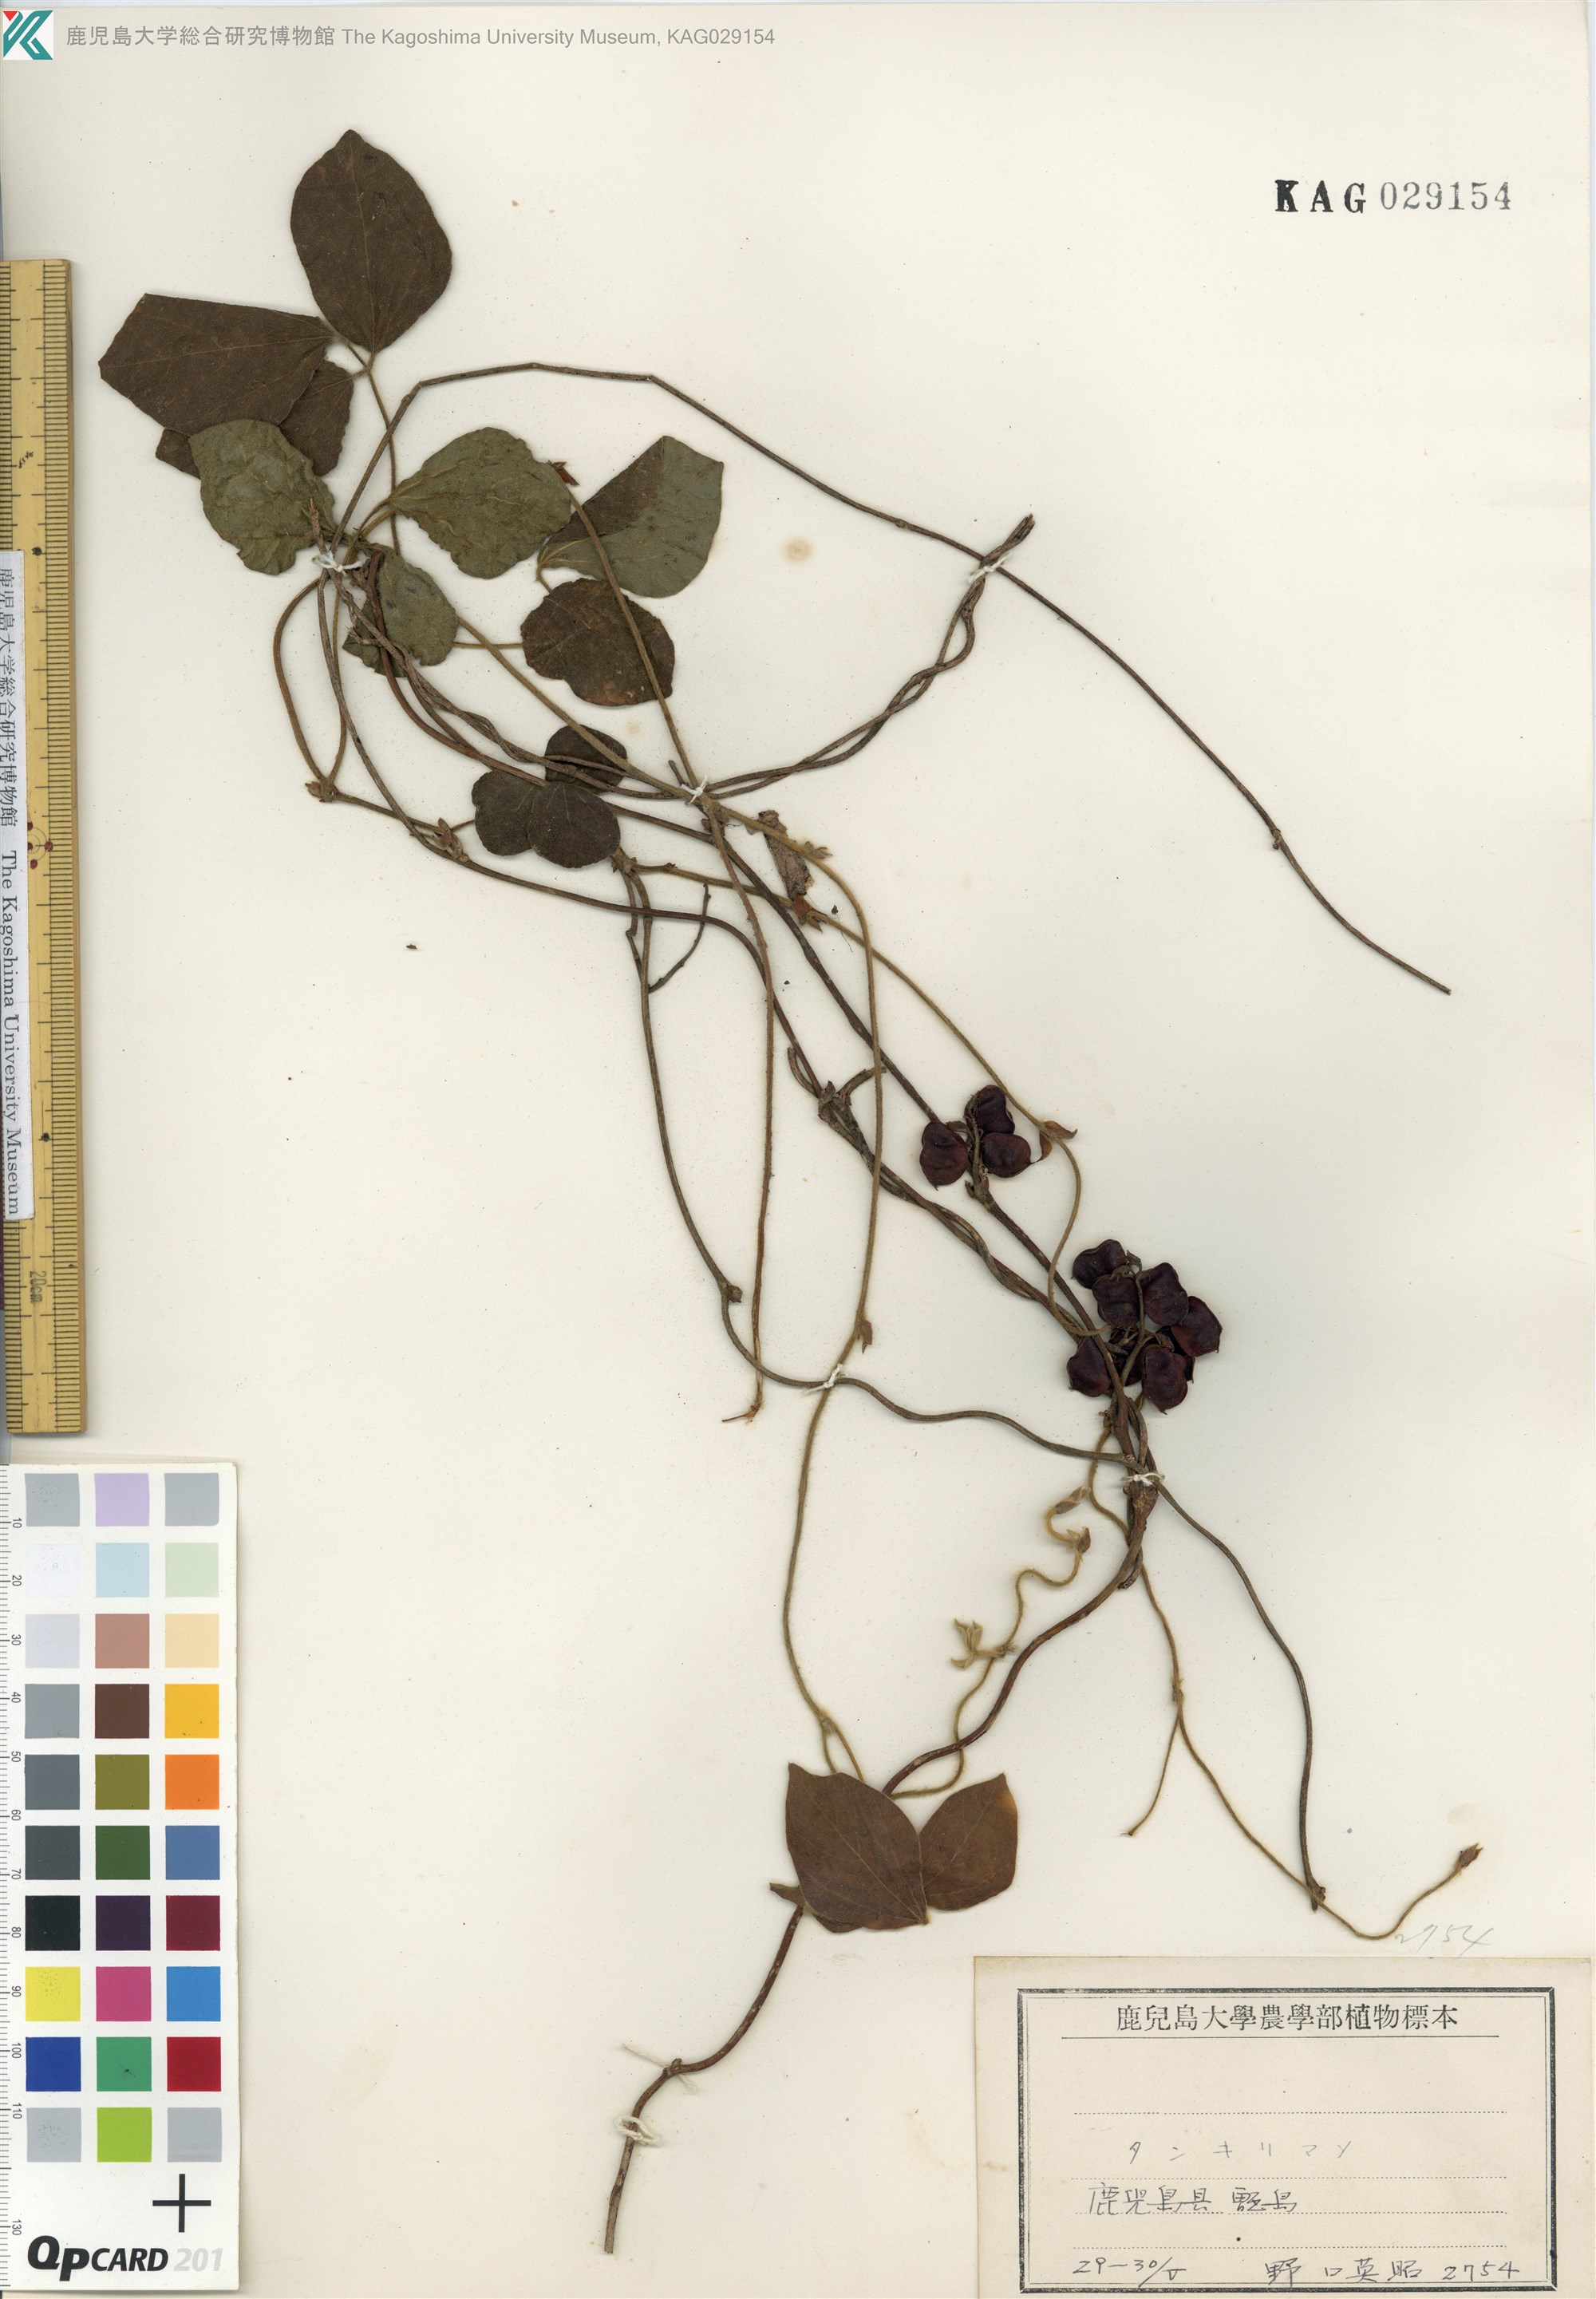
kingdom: Plantae
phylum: Tracheophyta
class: Magnoliopsida
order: Fabales
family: Fabaceae
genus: Rhynchosia
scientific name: Rhynchosia volubilis
